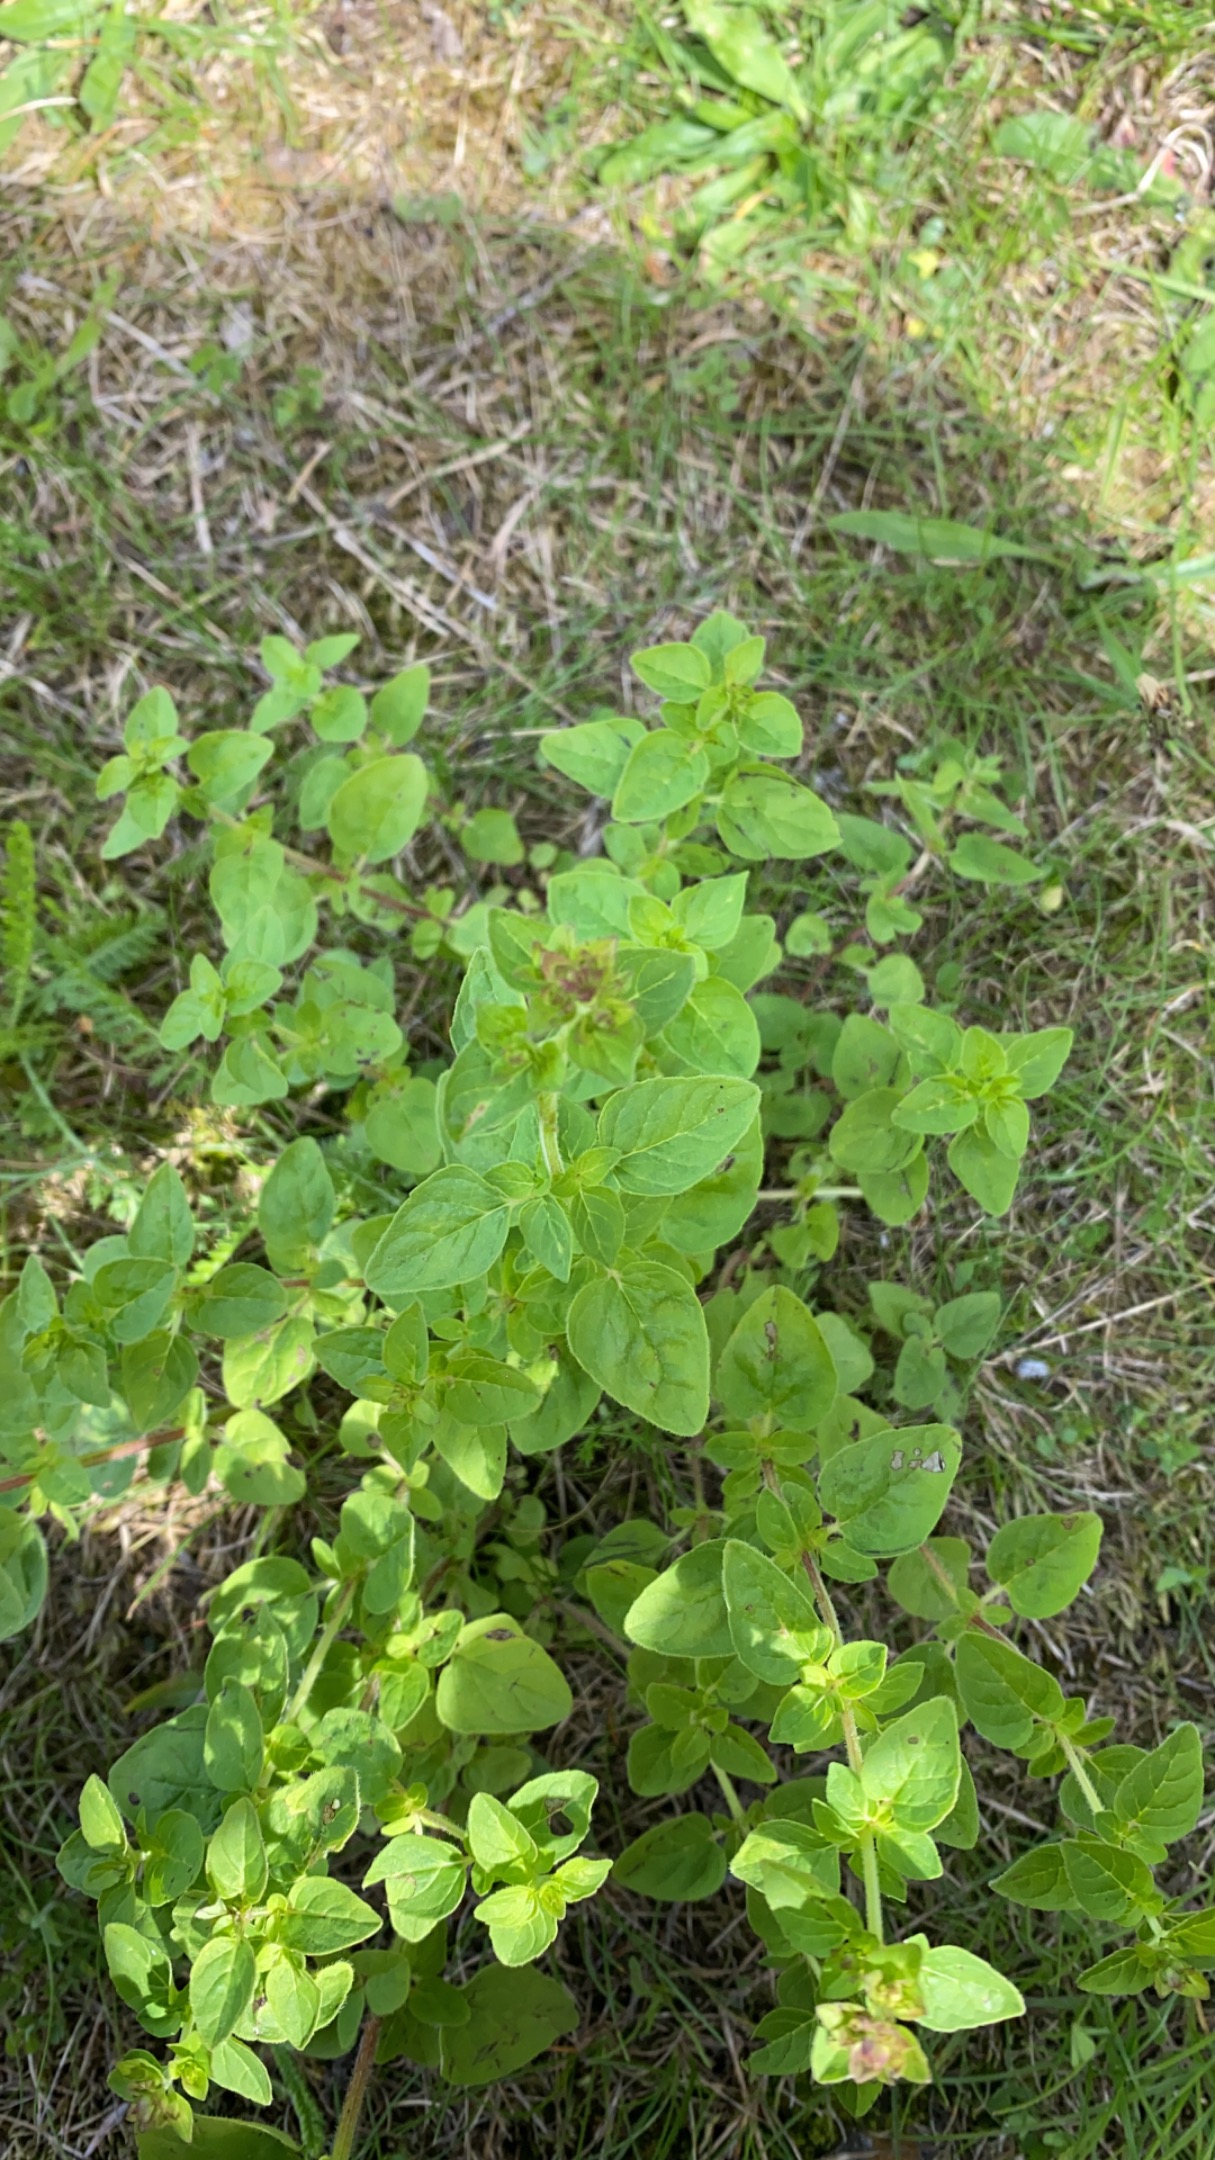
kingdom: Plantae
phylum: Tracheophyta
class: Magnoliopsida
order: Lamiales
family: Lamiaceae
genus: Origanum
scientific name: Origanum vulgare
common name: Merian
